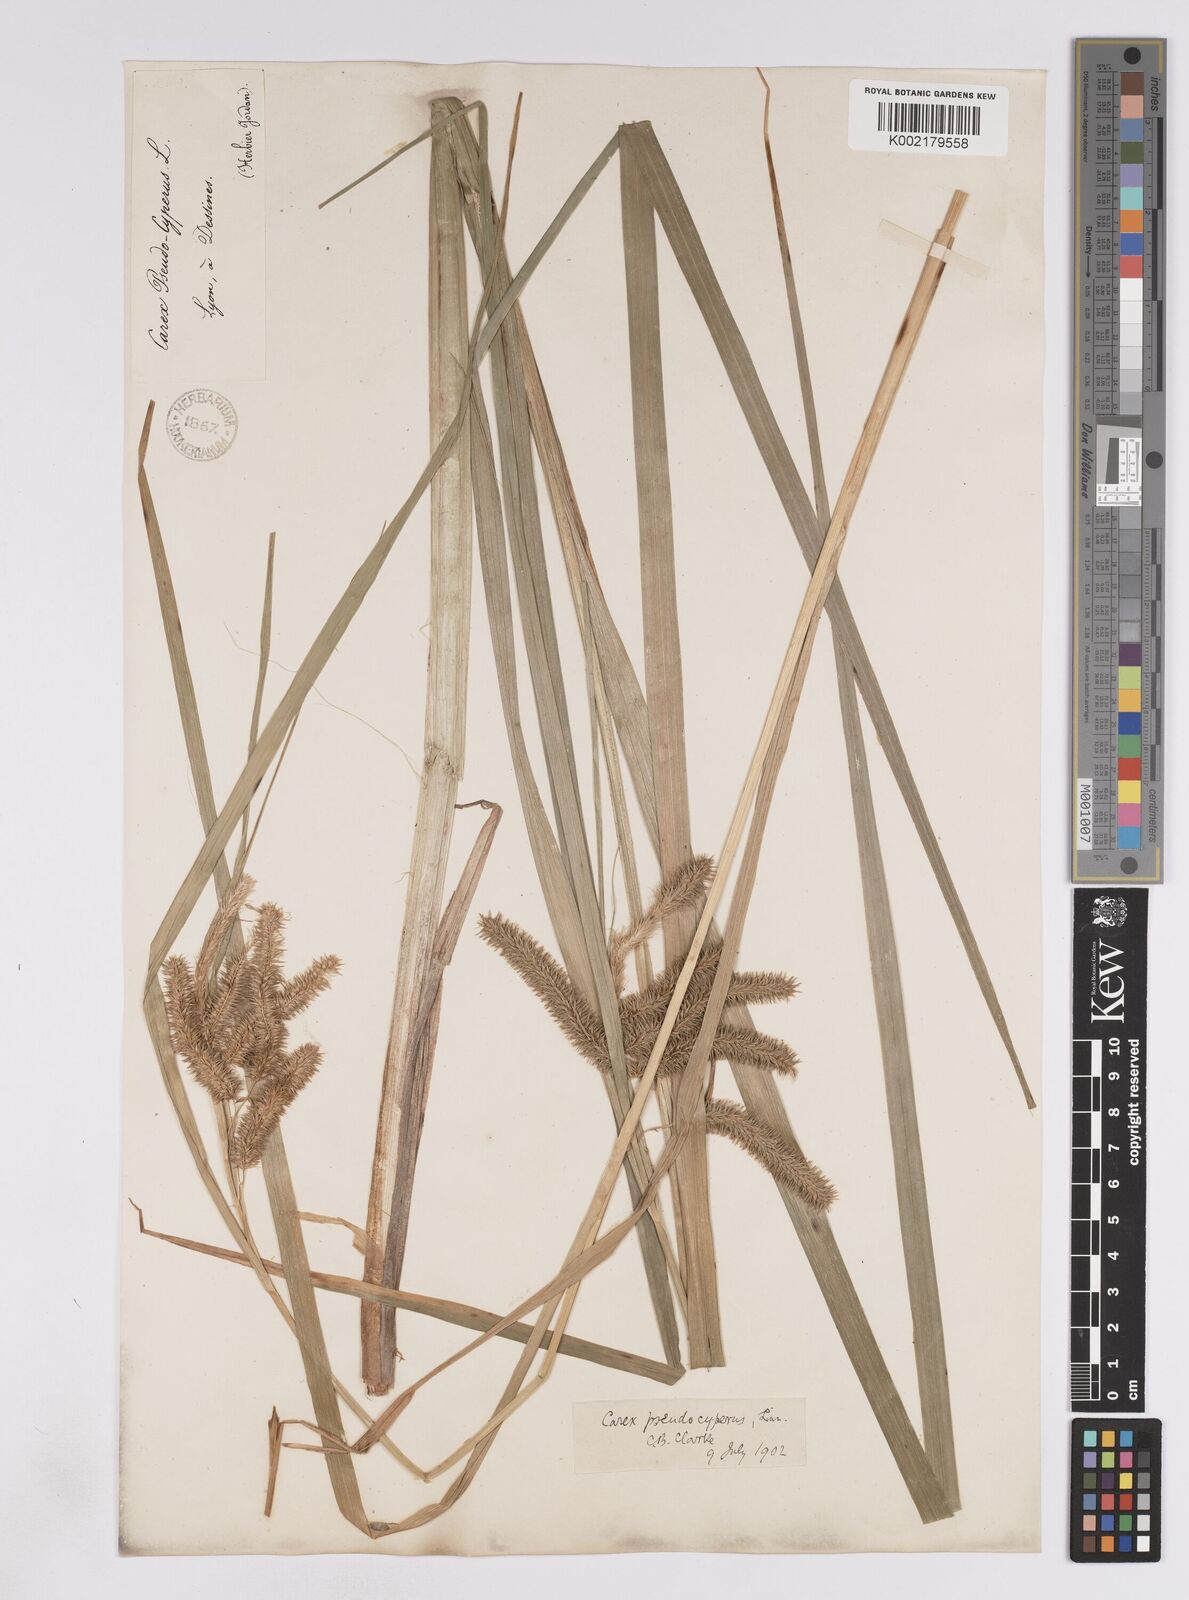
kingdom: Plantae
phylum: Tracheophyta
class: Liliopsida
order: Poales
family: Cyperaceae
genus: Carex
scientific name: Carex pseudocyperus
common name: Cyperus sedge
